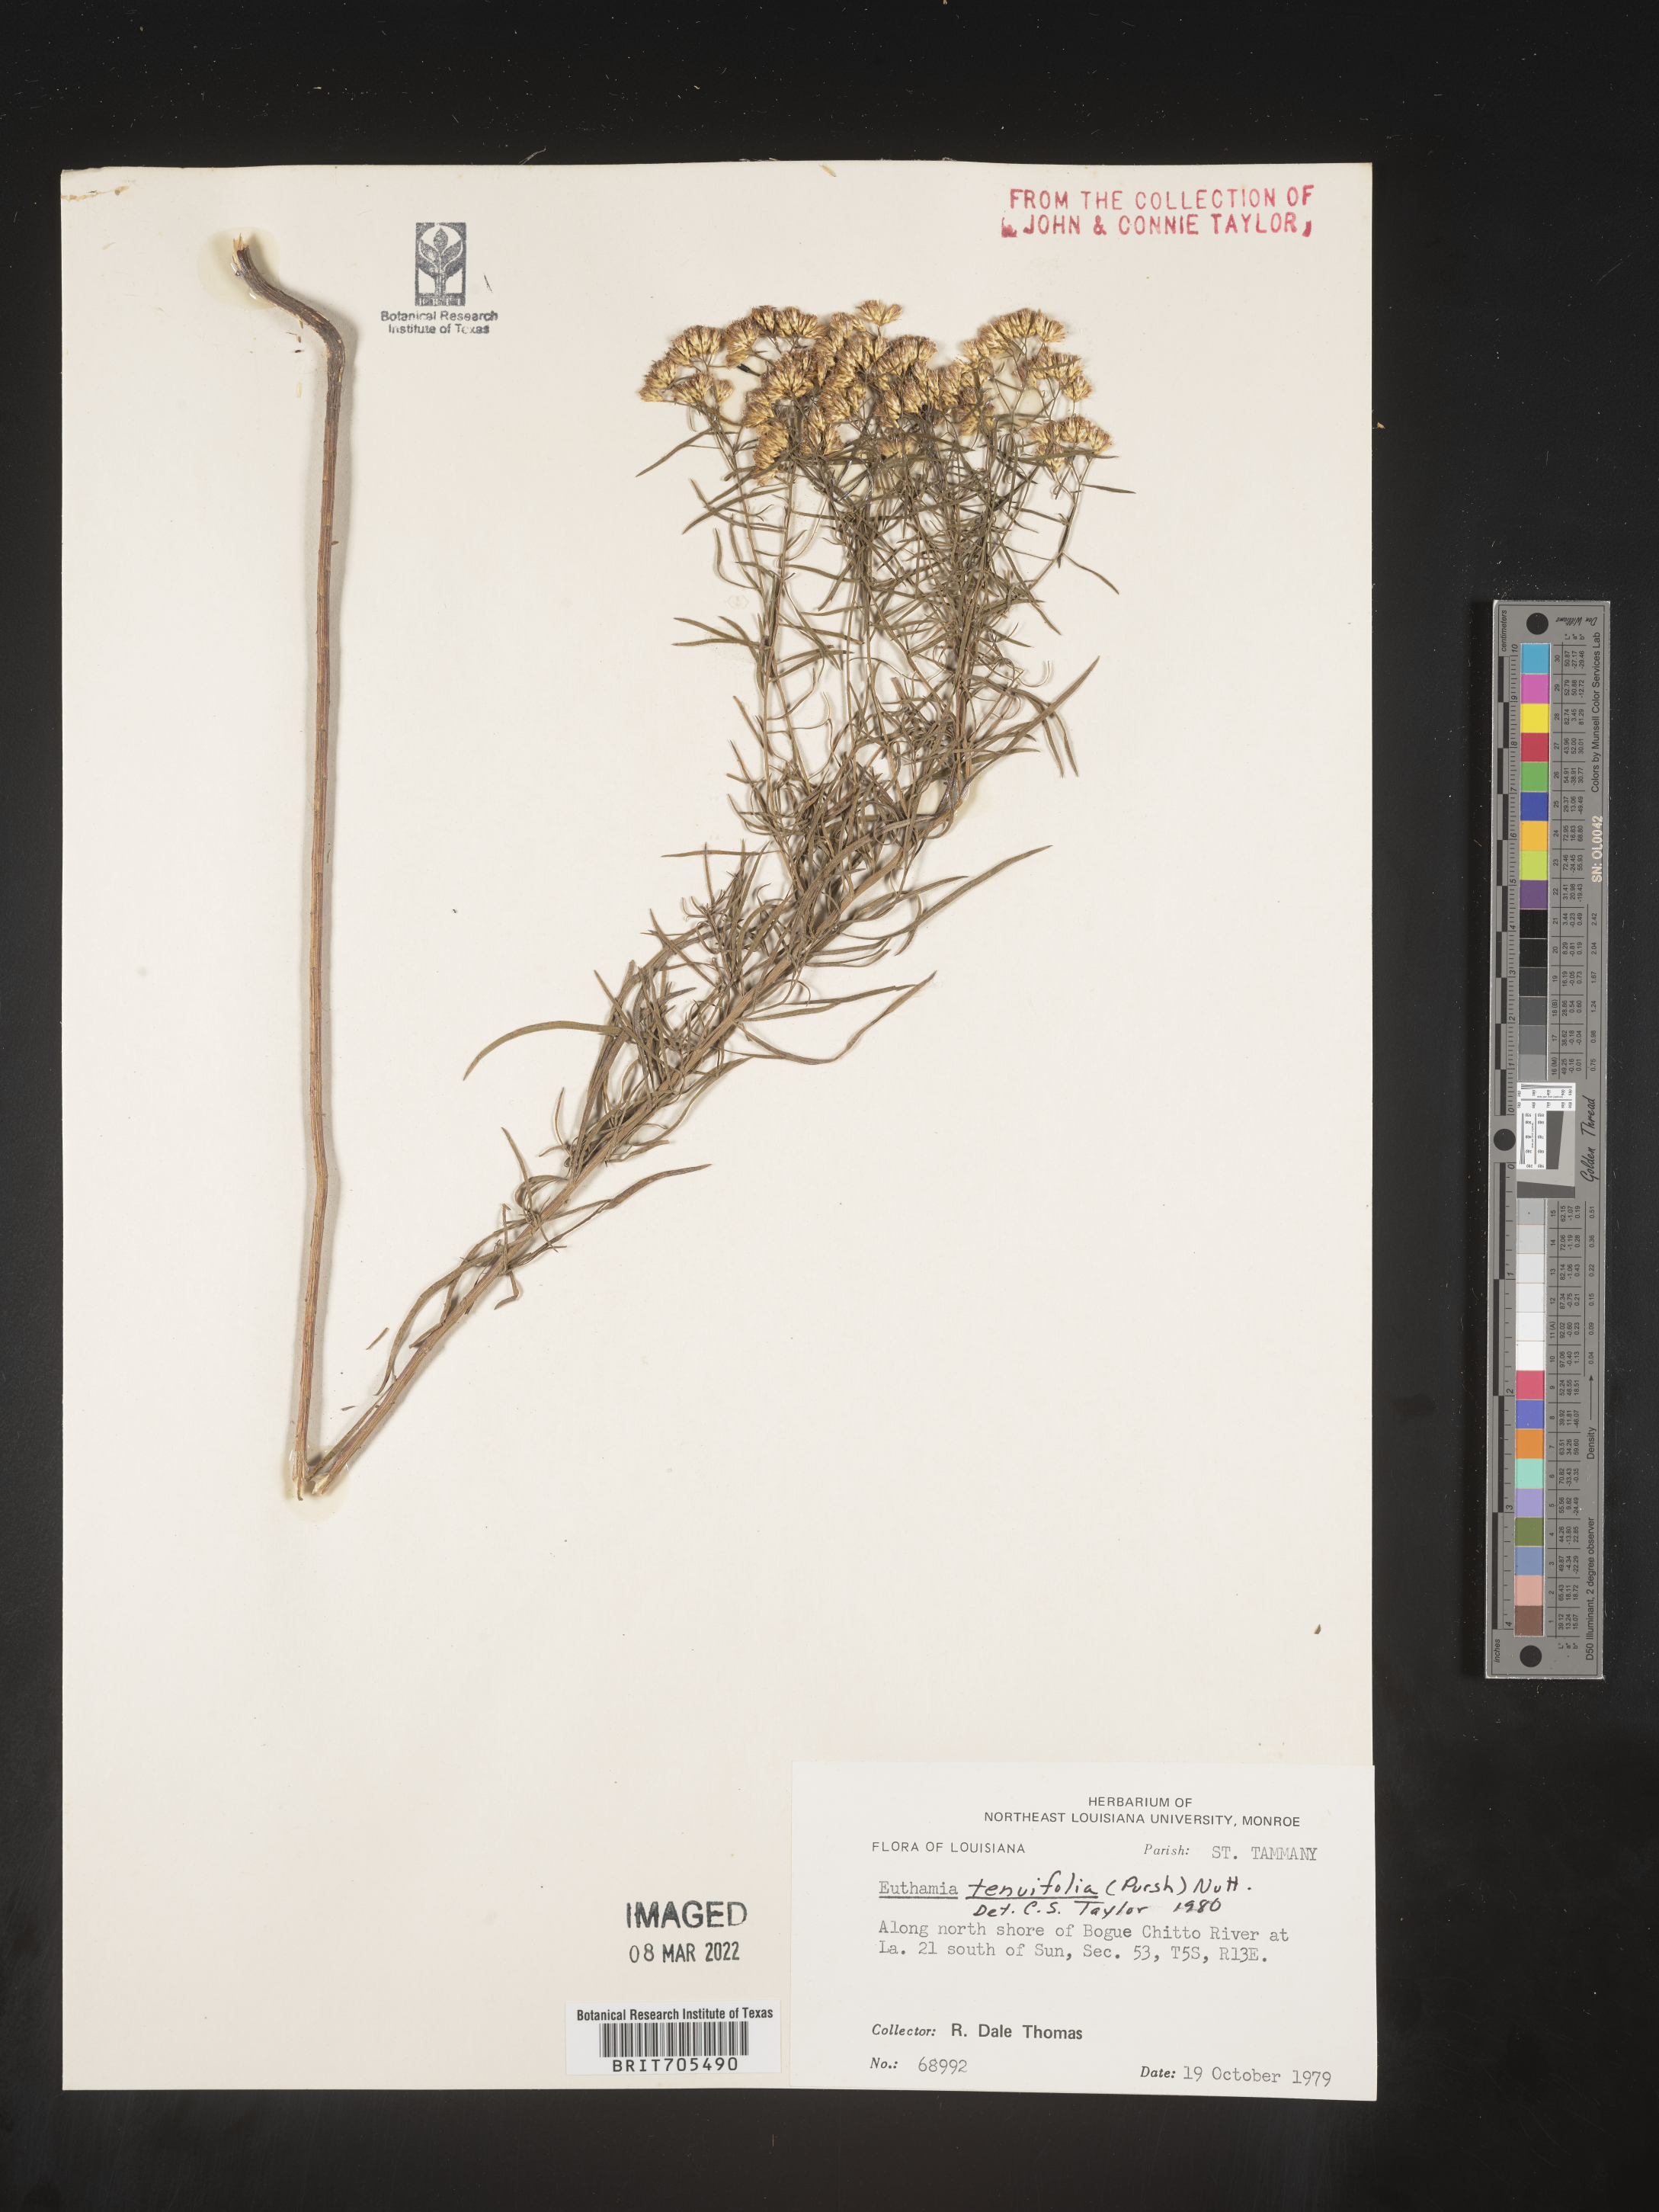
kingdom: Plantae
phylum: Tracheophyta
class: Magnoliopsida
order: Asterales
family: Asteraceae
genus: Euthamia
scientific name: Euthamia caroliniana
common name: Coastal plain goldentop
